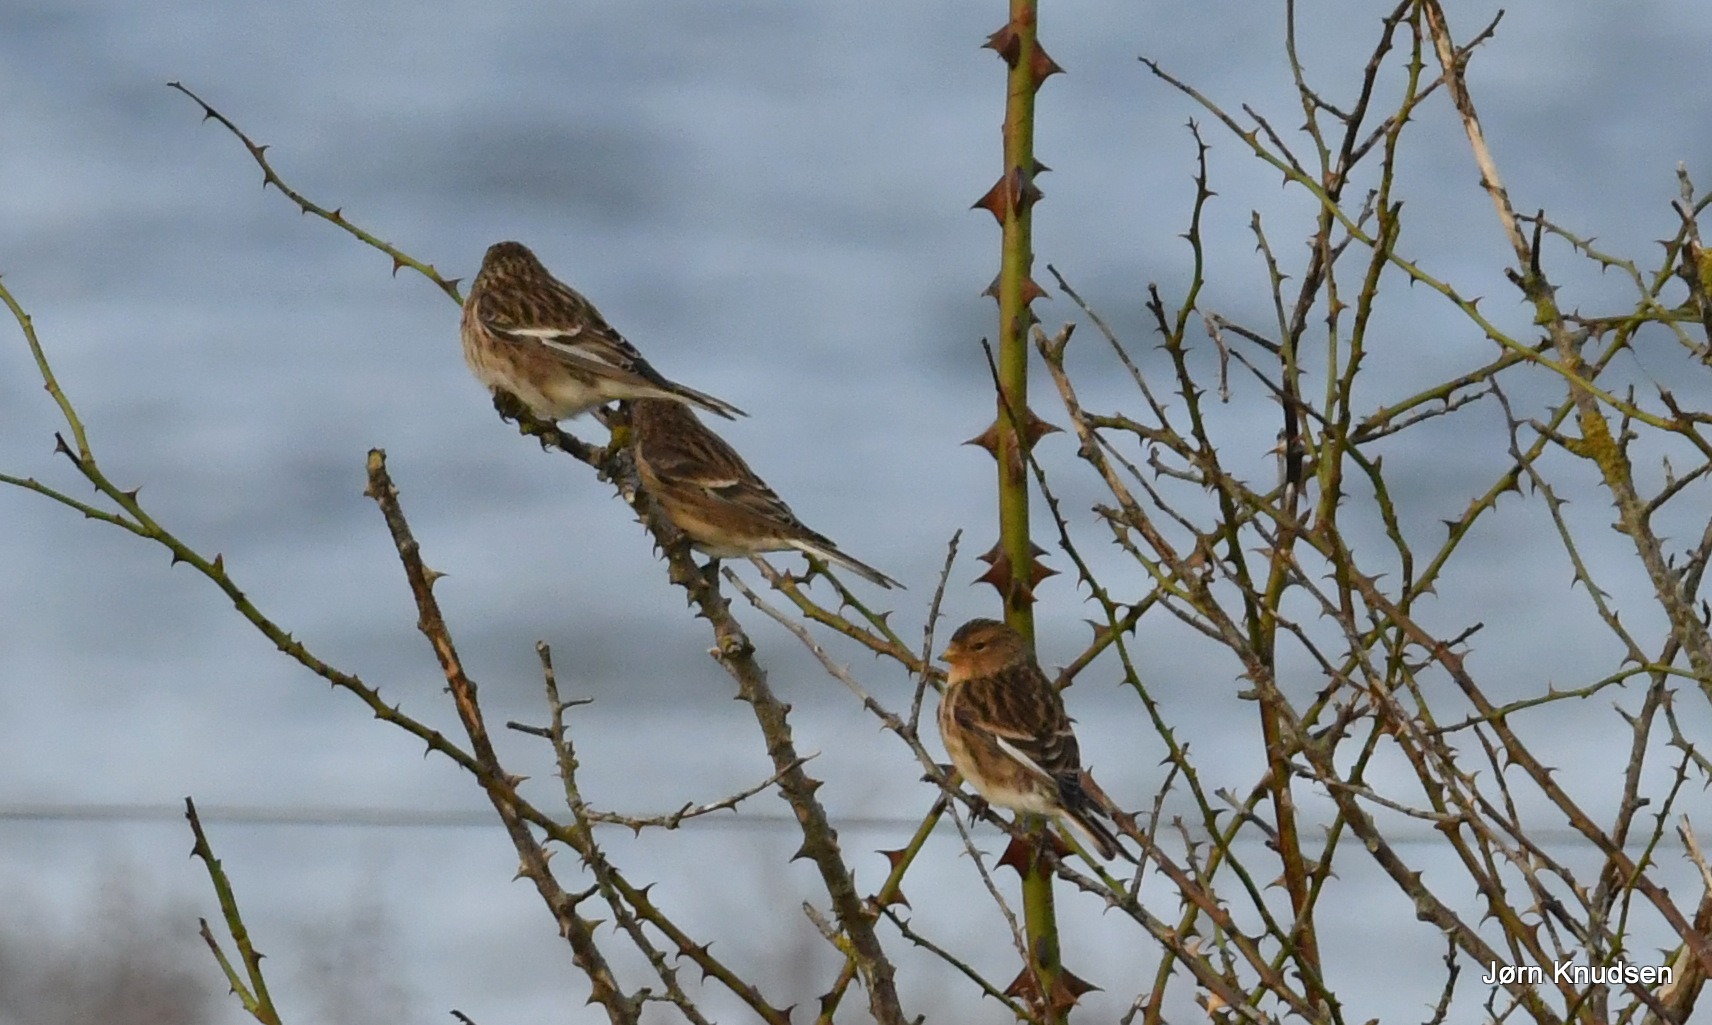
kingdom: Animalia
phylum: Chordata
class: Aves
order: Passeriformes
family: Fringillidae
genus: Linaria
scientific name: Linaria flavirostris
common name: Bjergirisk
